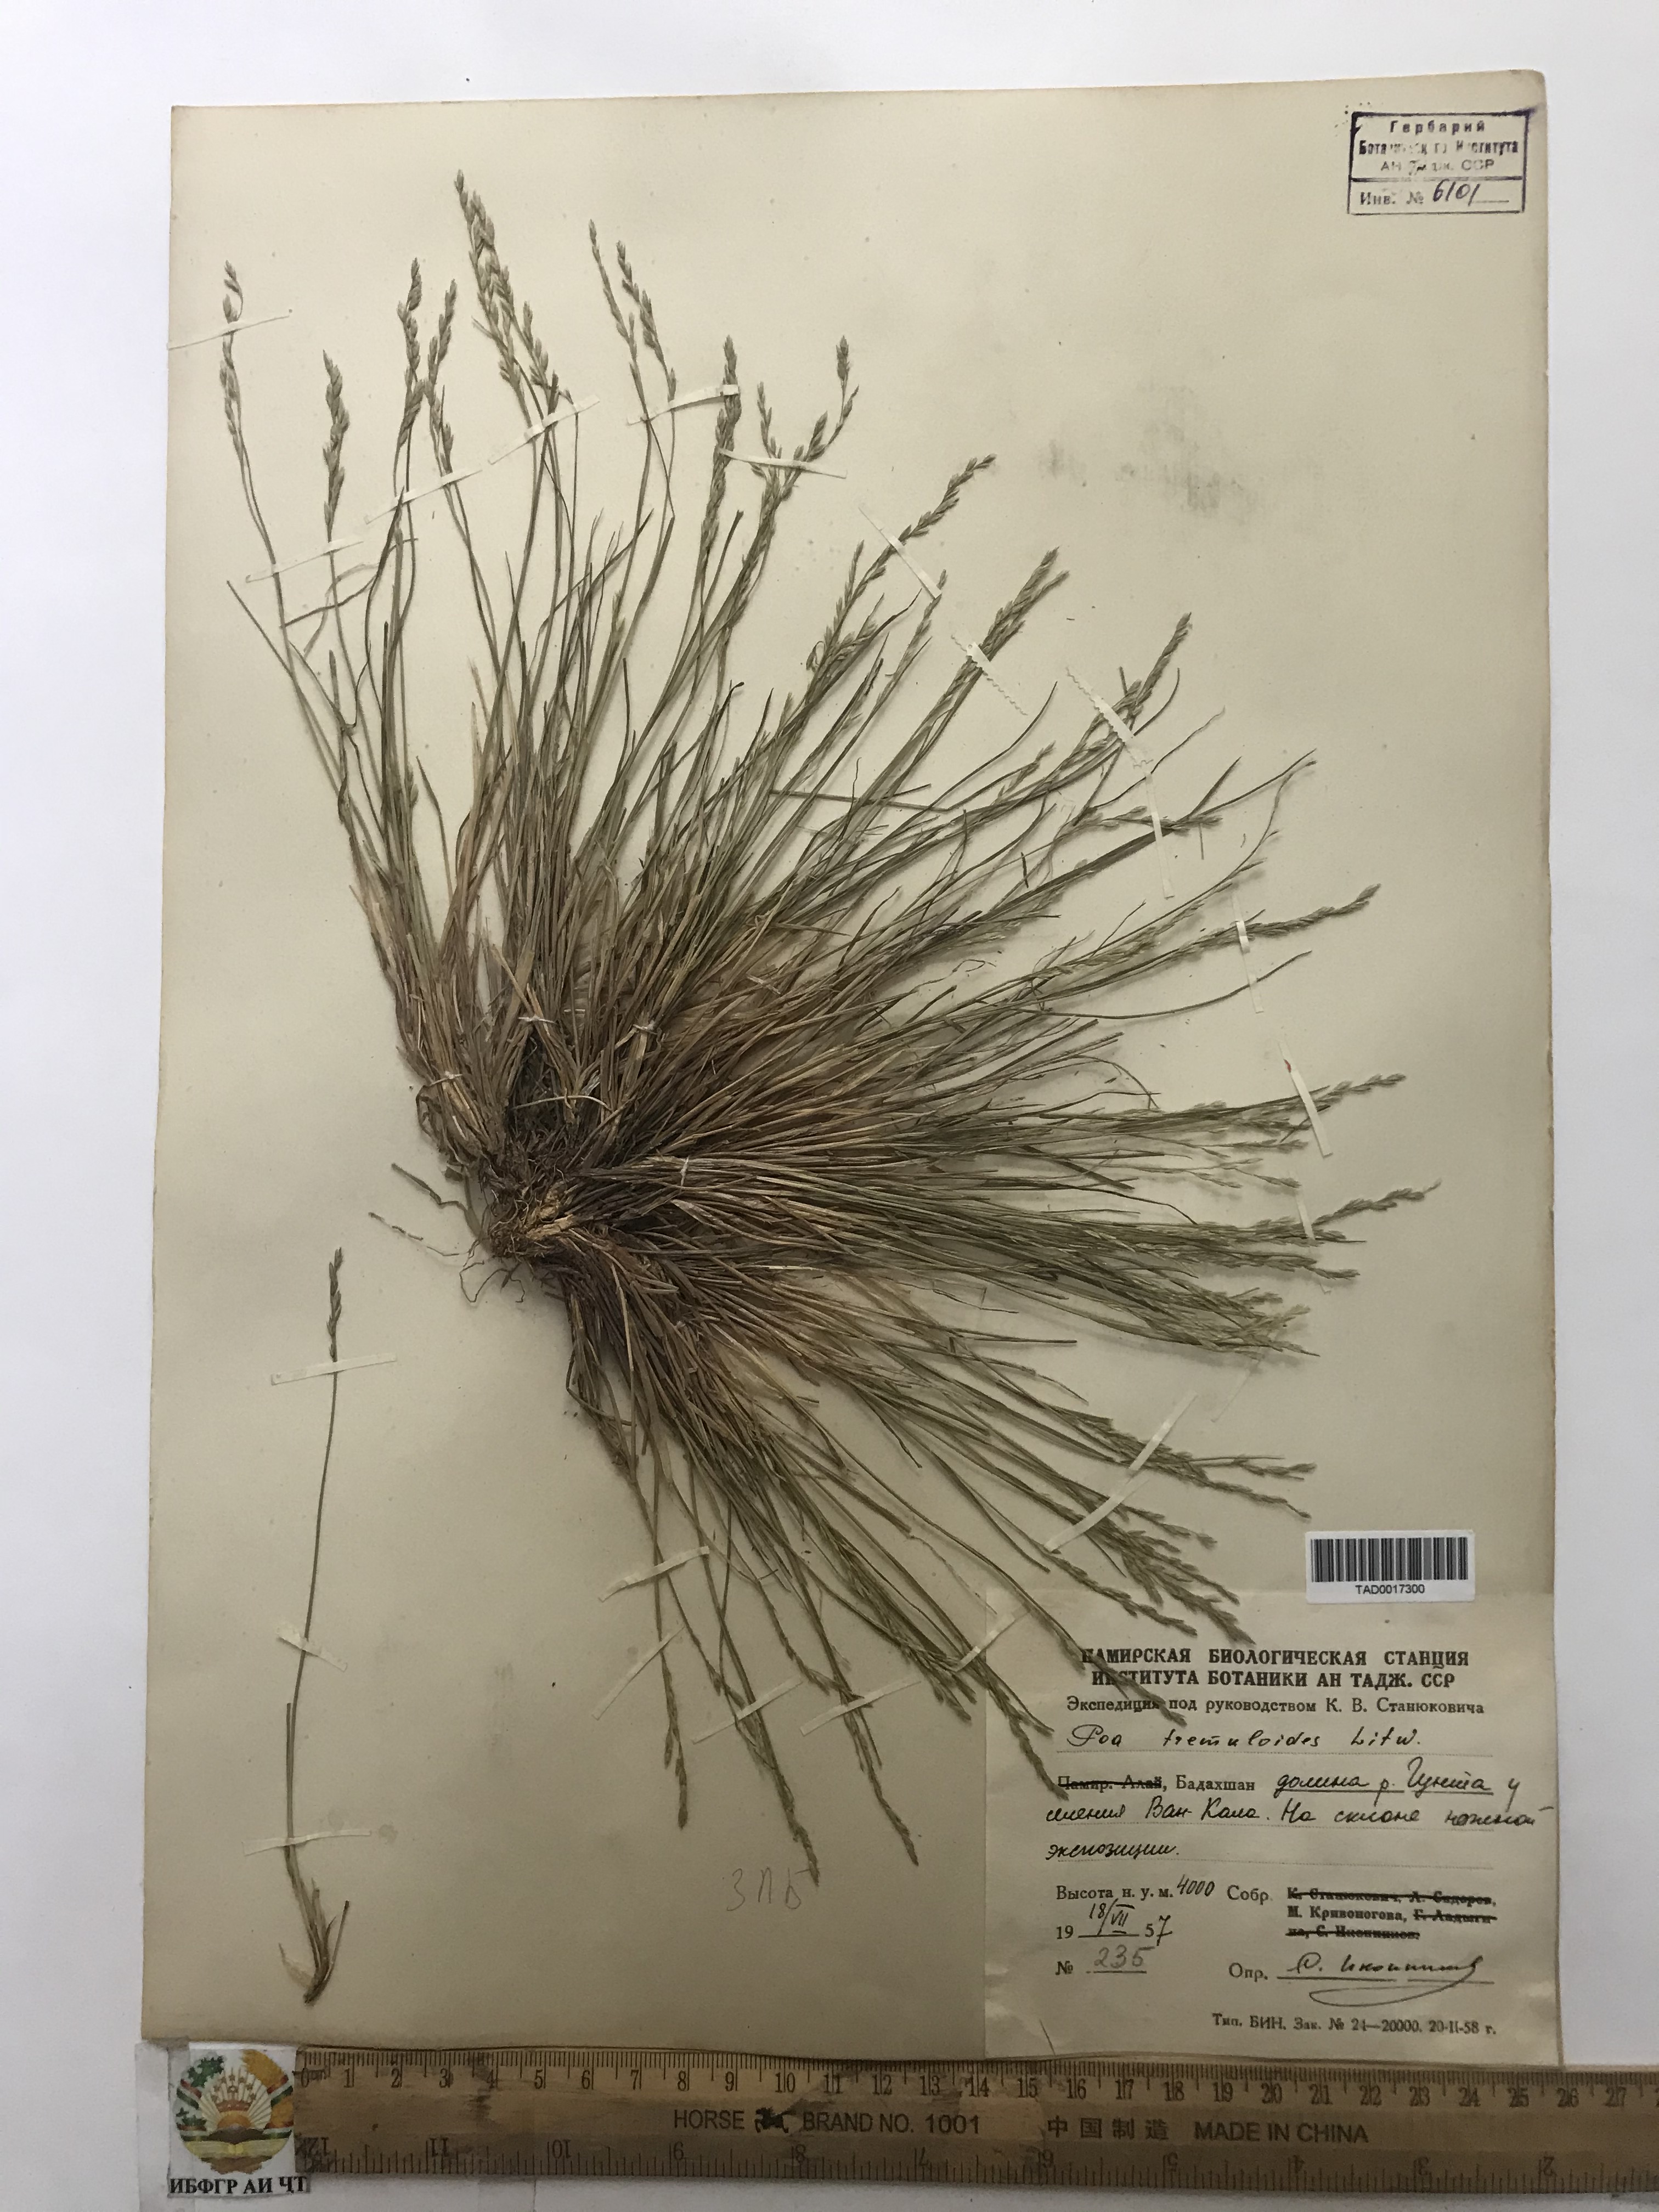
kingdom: Plantae
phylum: Tracheophyta
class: Liliopsida
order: Poales
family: Poaceae
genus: Poa
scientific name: Poa glauca
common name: Glaucous bluegrass
